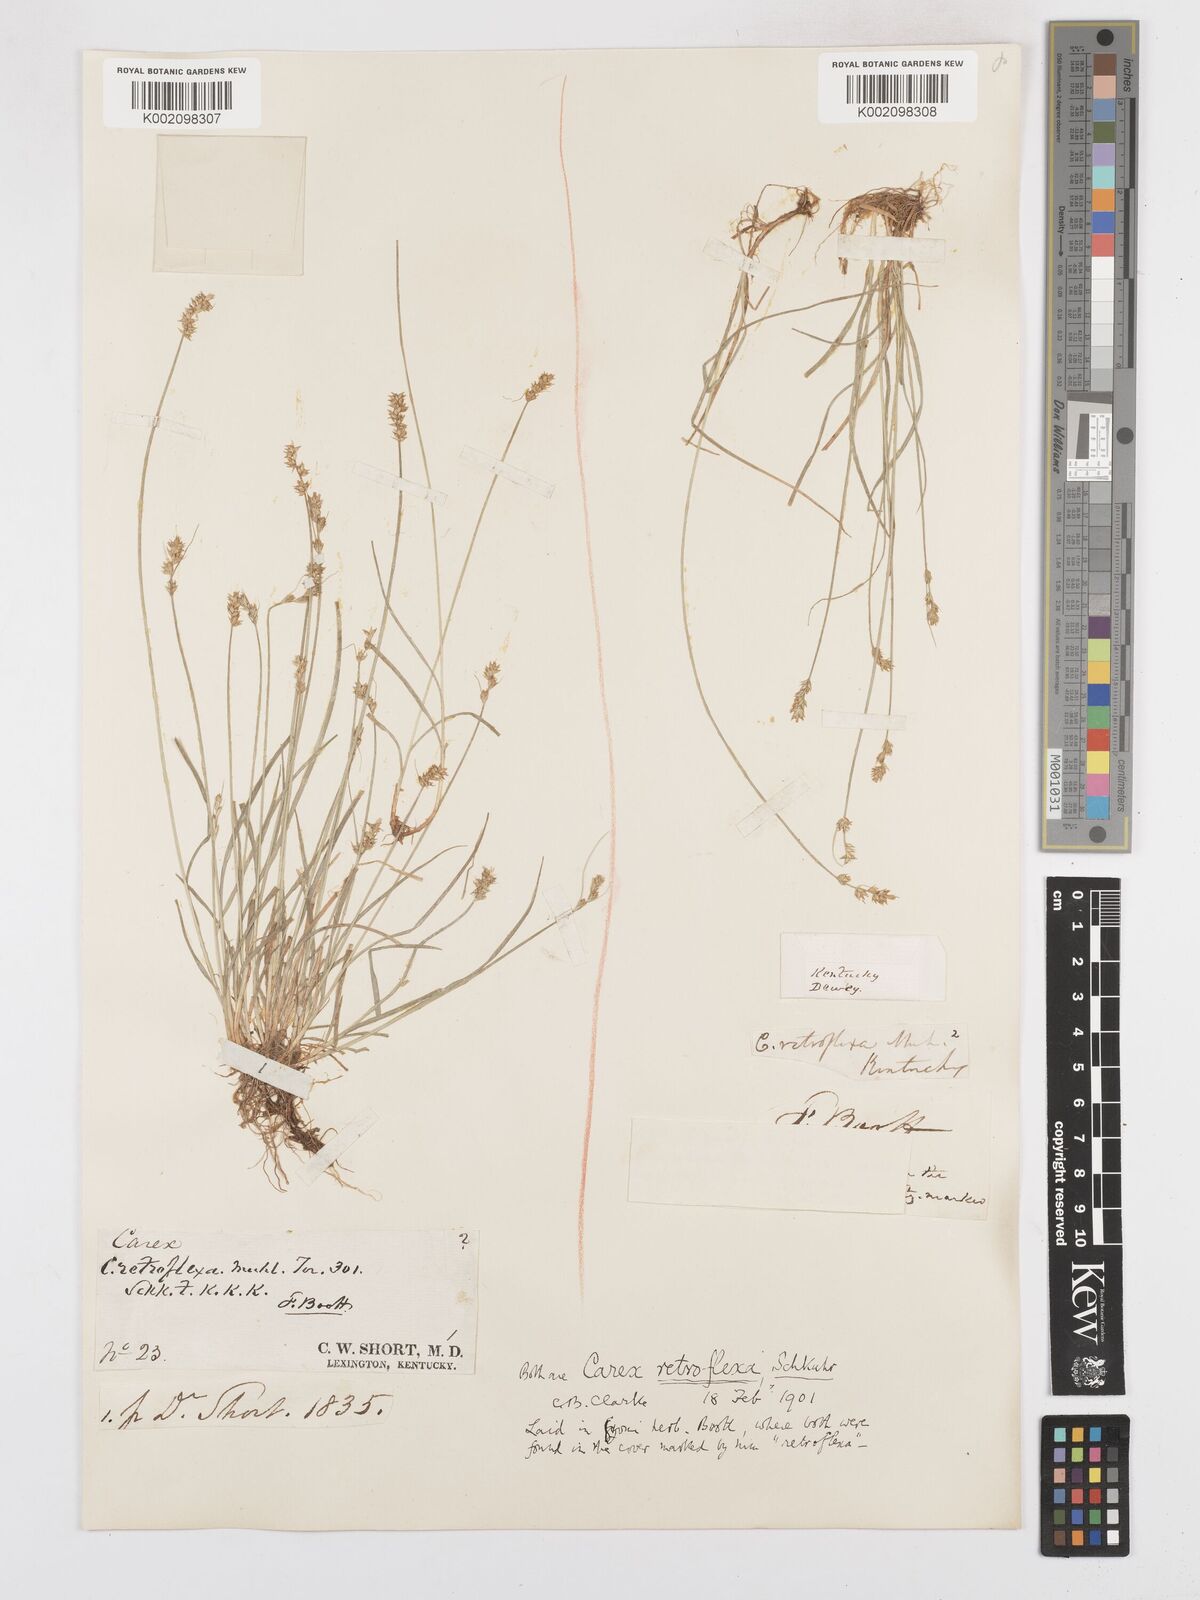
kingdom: Plantae
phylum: Tracheophyta
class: Liliopsida
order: Poales
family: Cyperaceae
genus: Carex
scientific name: Carex retroflexa
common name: Reflexed sedge
